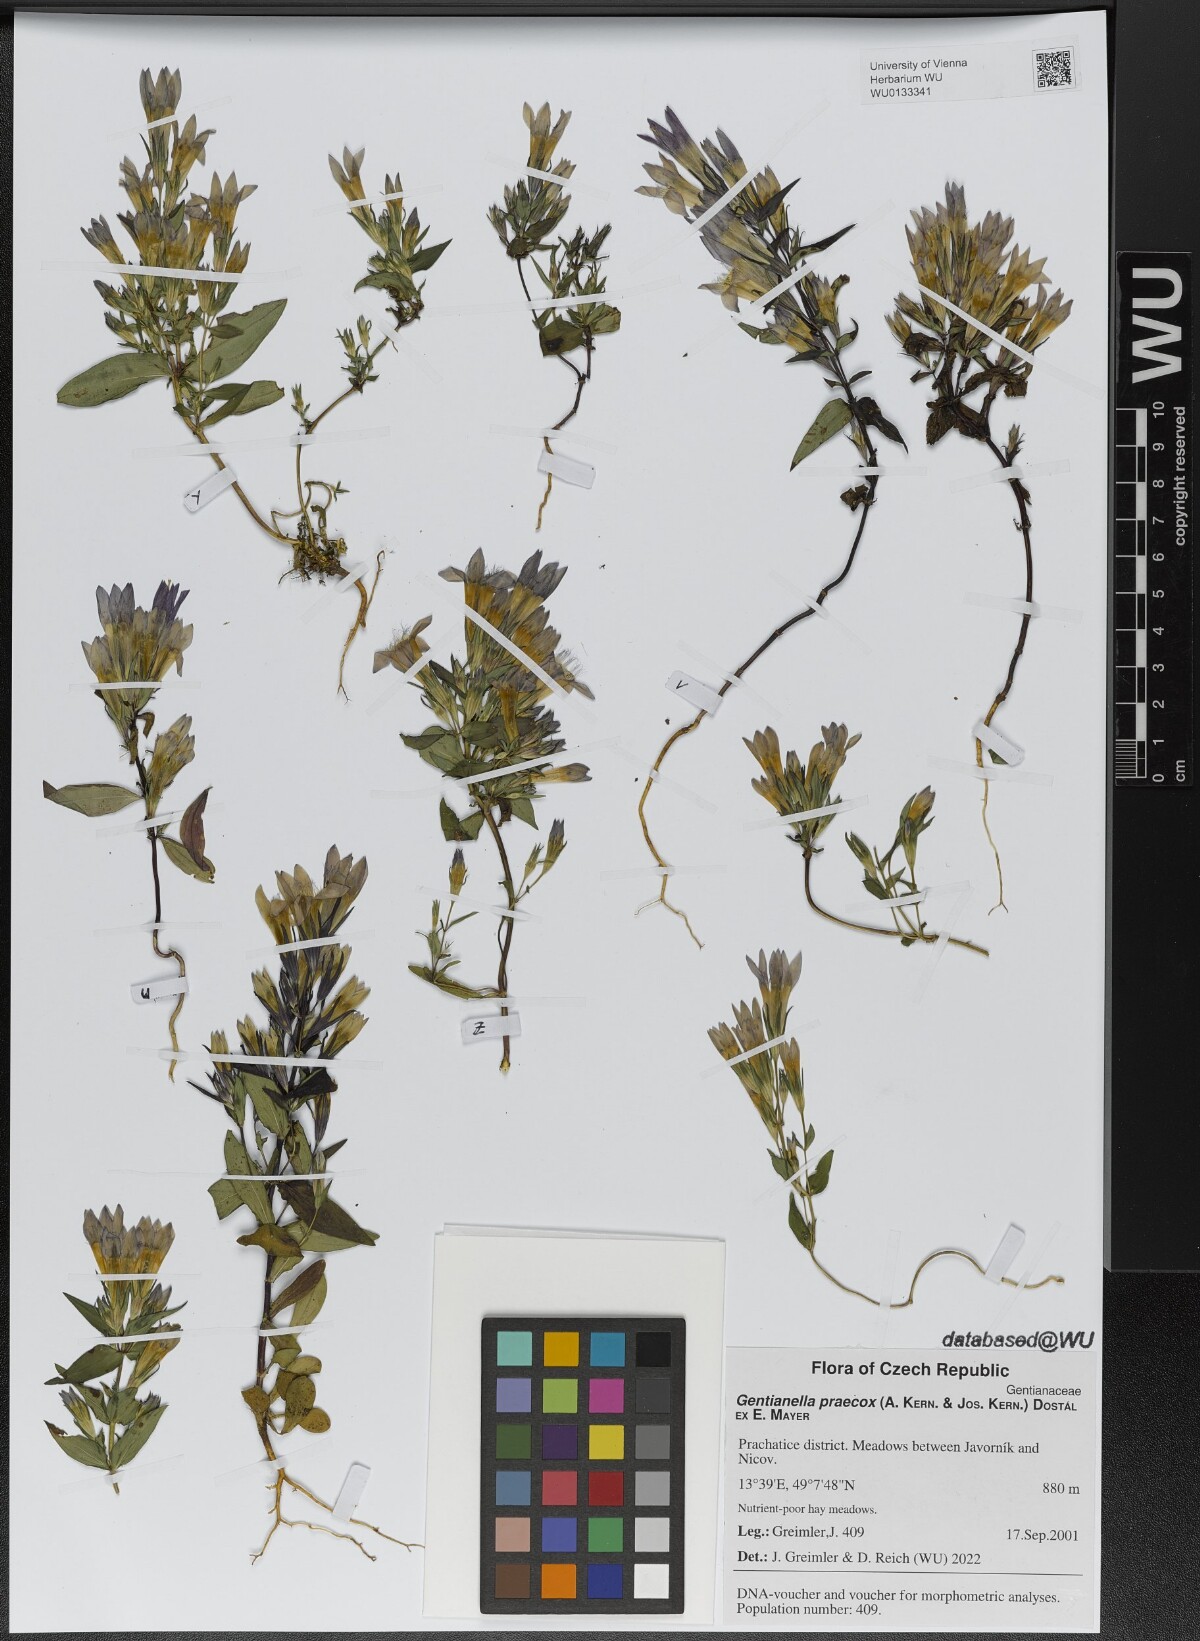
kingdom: Plantae
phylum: Tracheophyta
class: Magnoliopsida
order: Gentianales
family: Gentianaceae
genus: Gentianella
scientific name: Gentianella praecox
